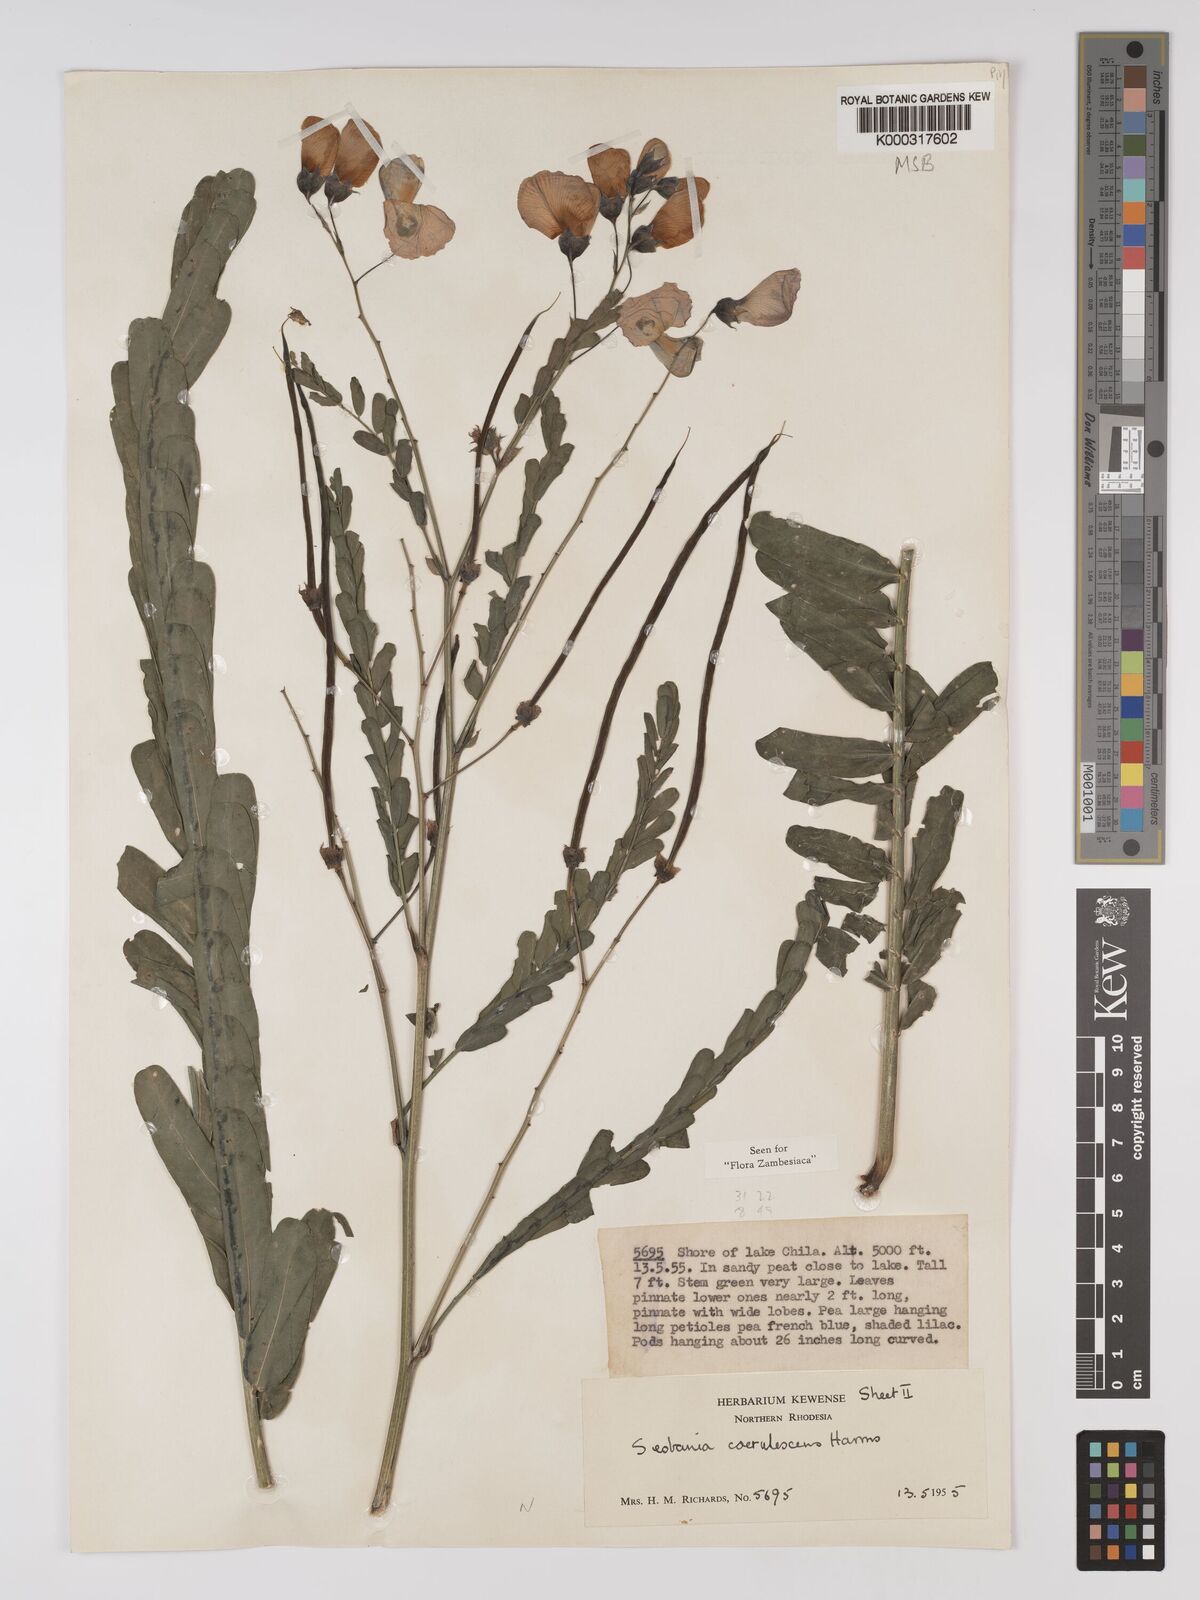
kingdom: Plantae
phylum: Tracheophyta
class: Magnoliopsida
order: Fabales
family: Fabaceae
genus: Sesbania
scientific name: Sesbania coerulescens
